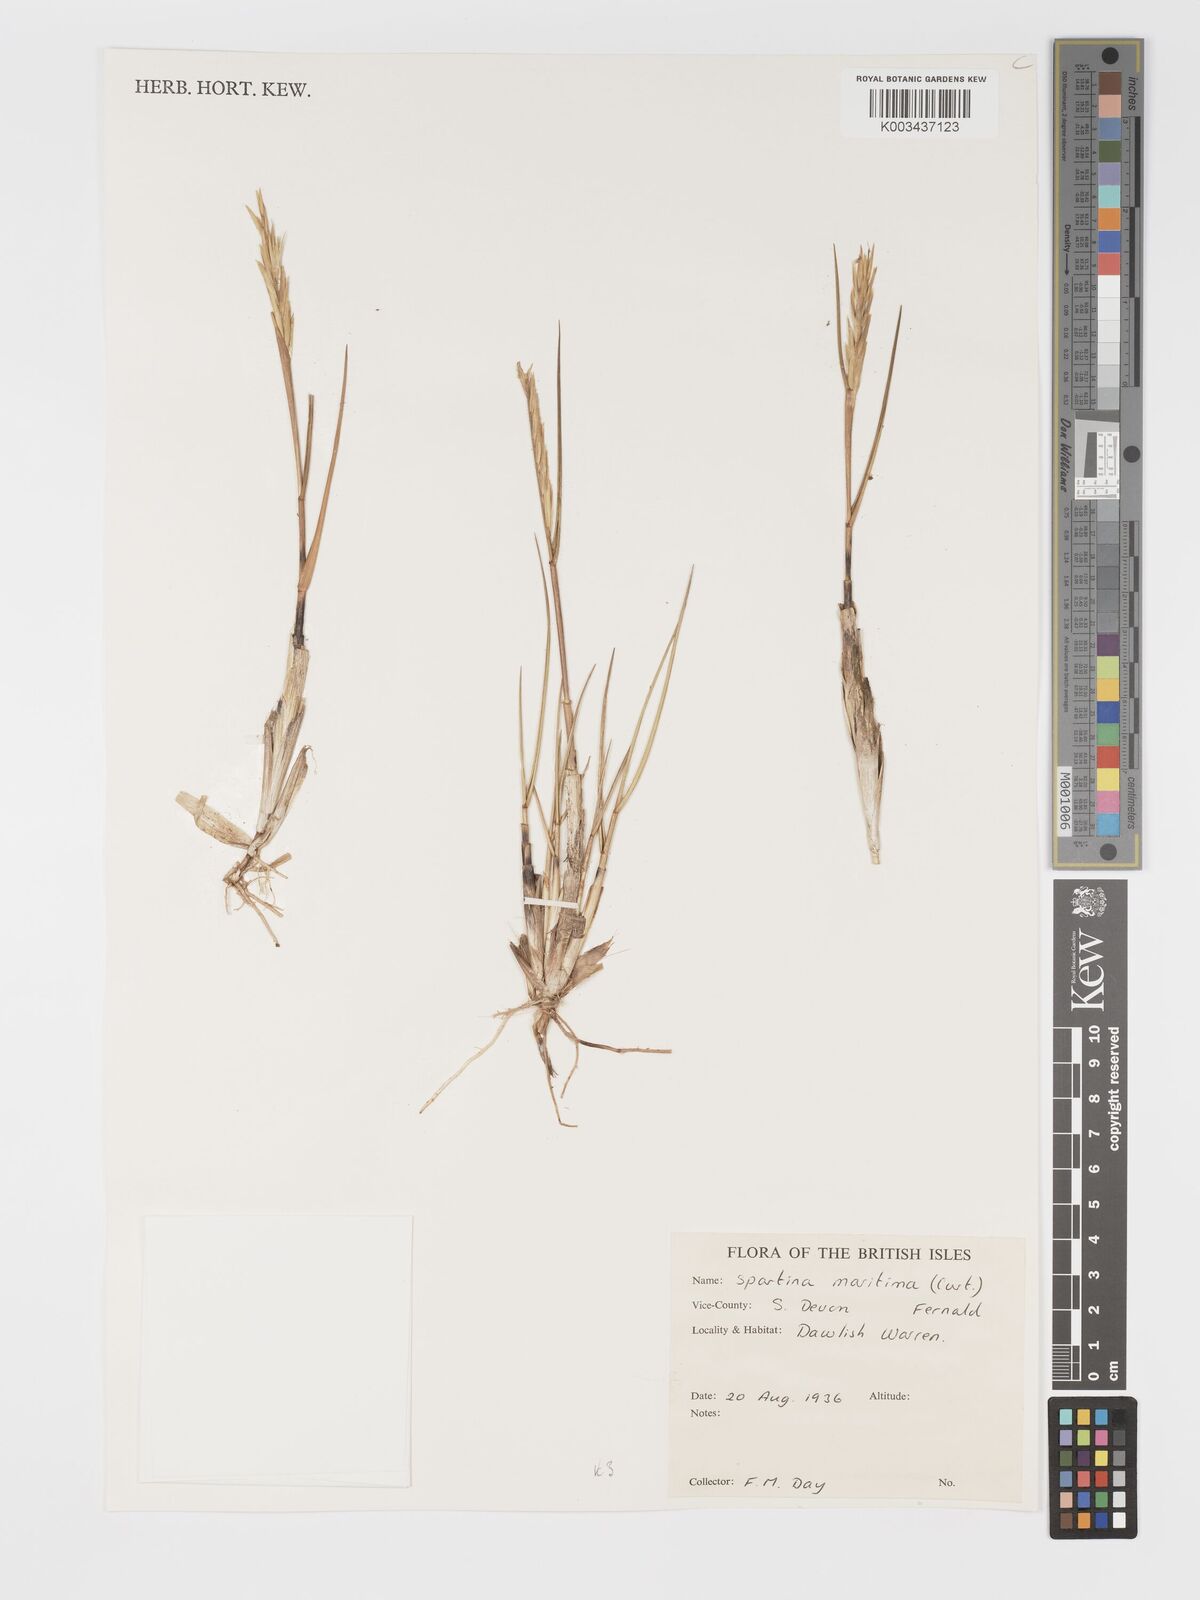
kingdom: Plantae
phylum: Tracheophyta
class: Liliopsida
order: Poales
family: Poaceae
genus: Sporobolus
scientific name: Sporobolus maritimus
